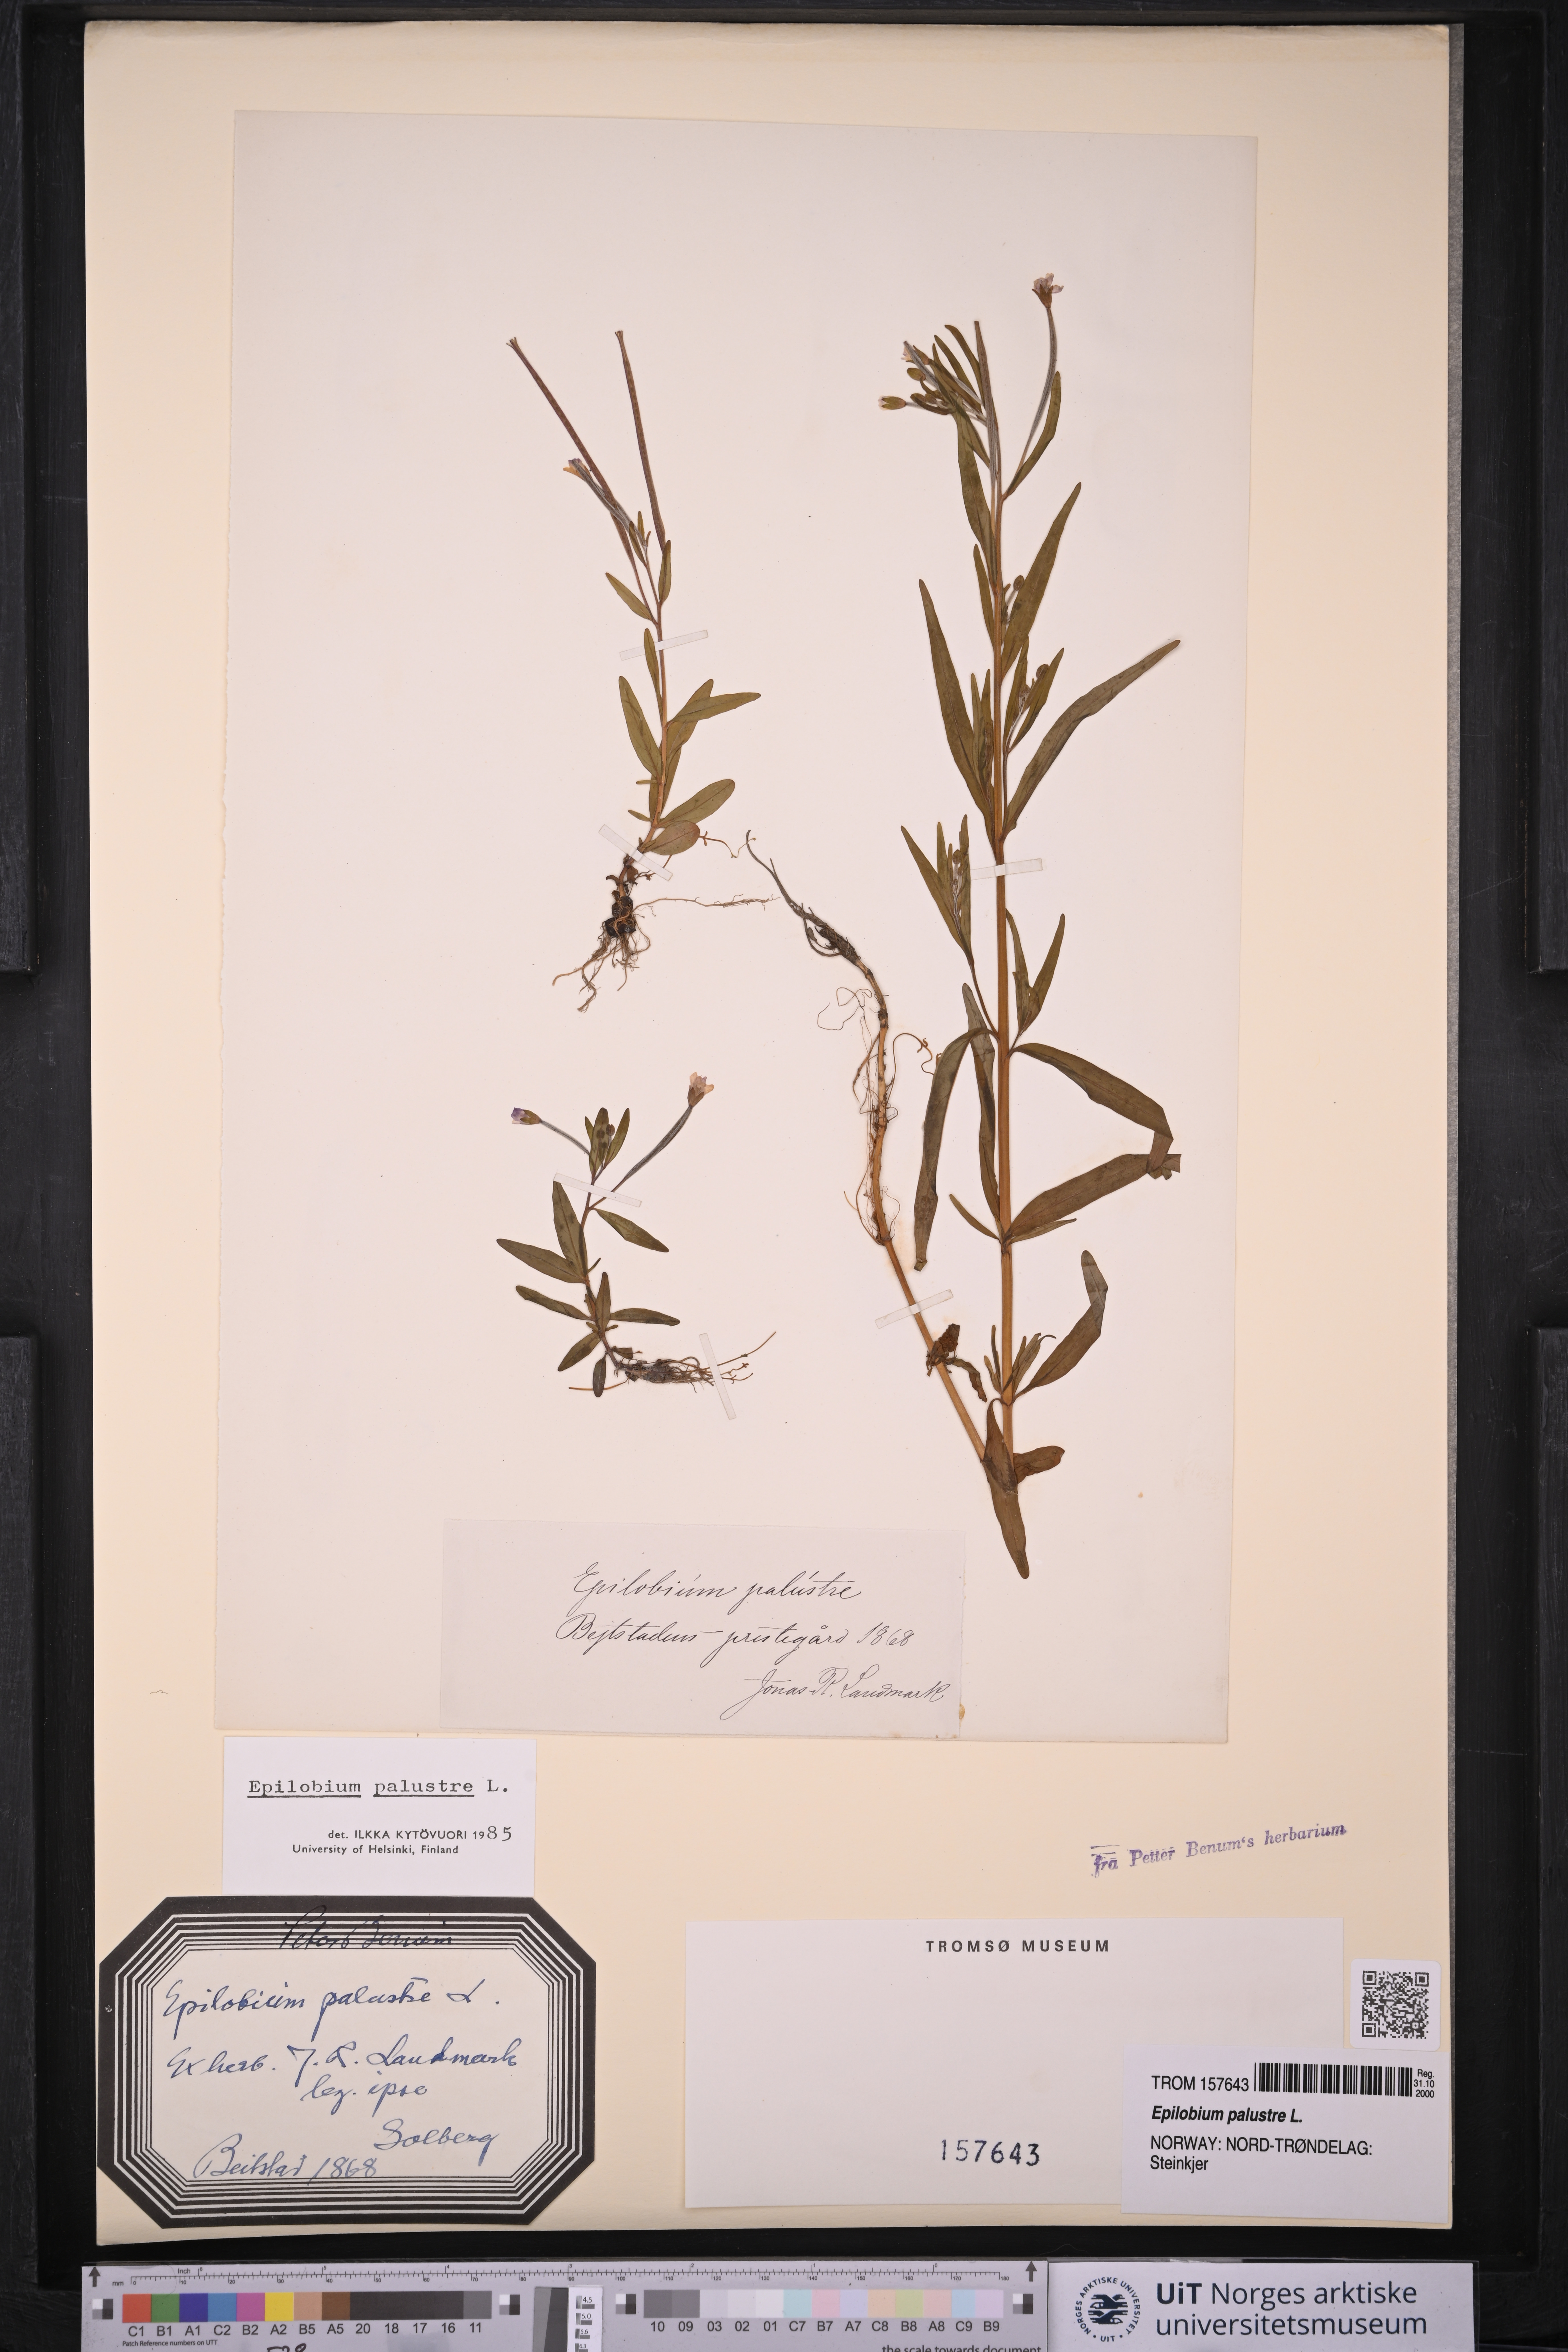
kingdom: Plantae
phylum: Tracheophyta
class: Magnoliopsida
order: Myrtales
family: Onagraceae
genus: Epilobium
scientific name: Epilobium palustre
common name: Marsh willowherb
